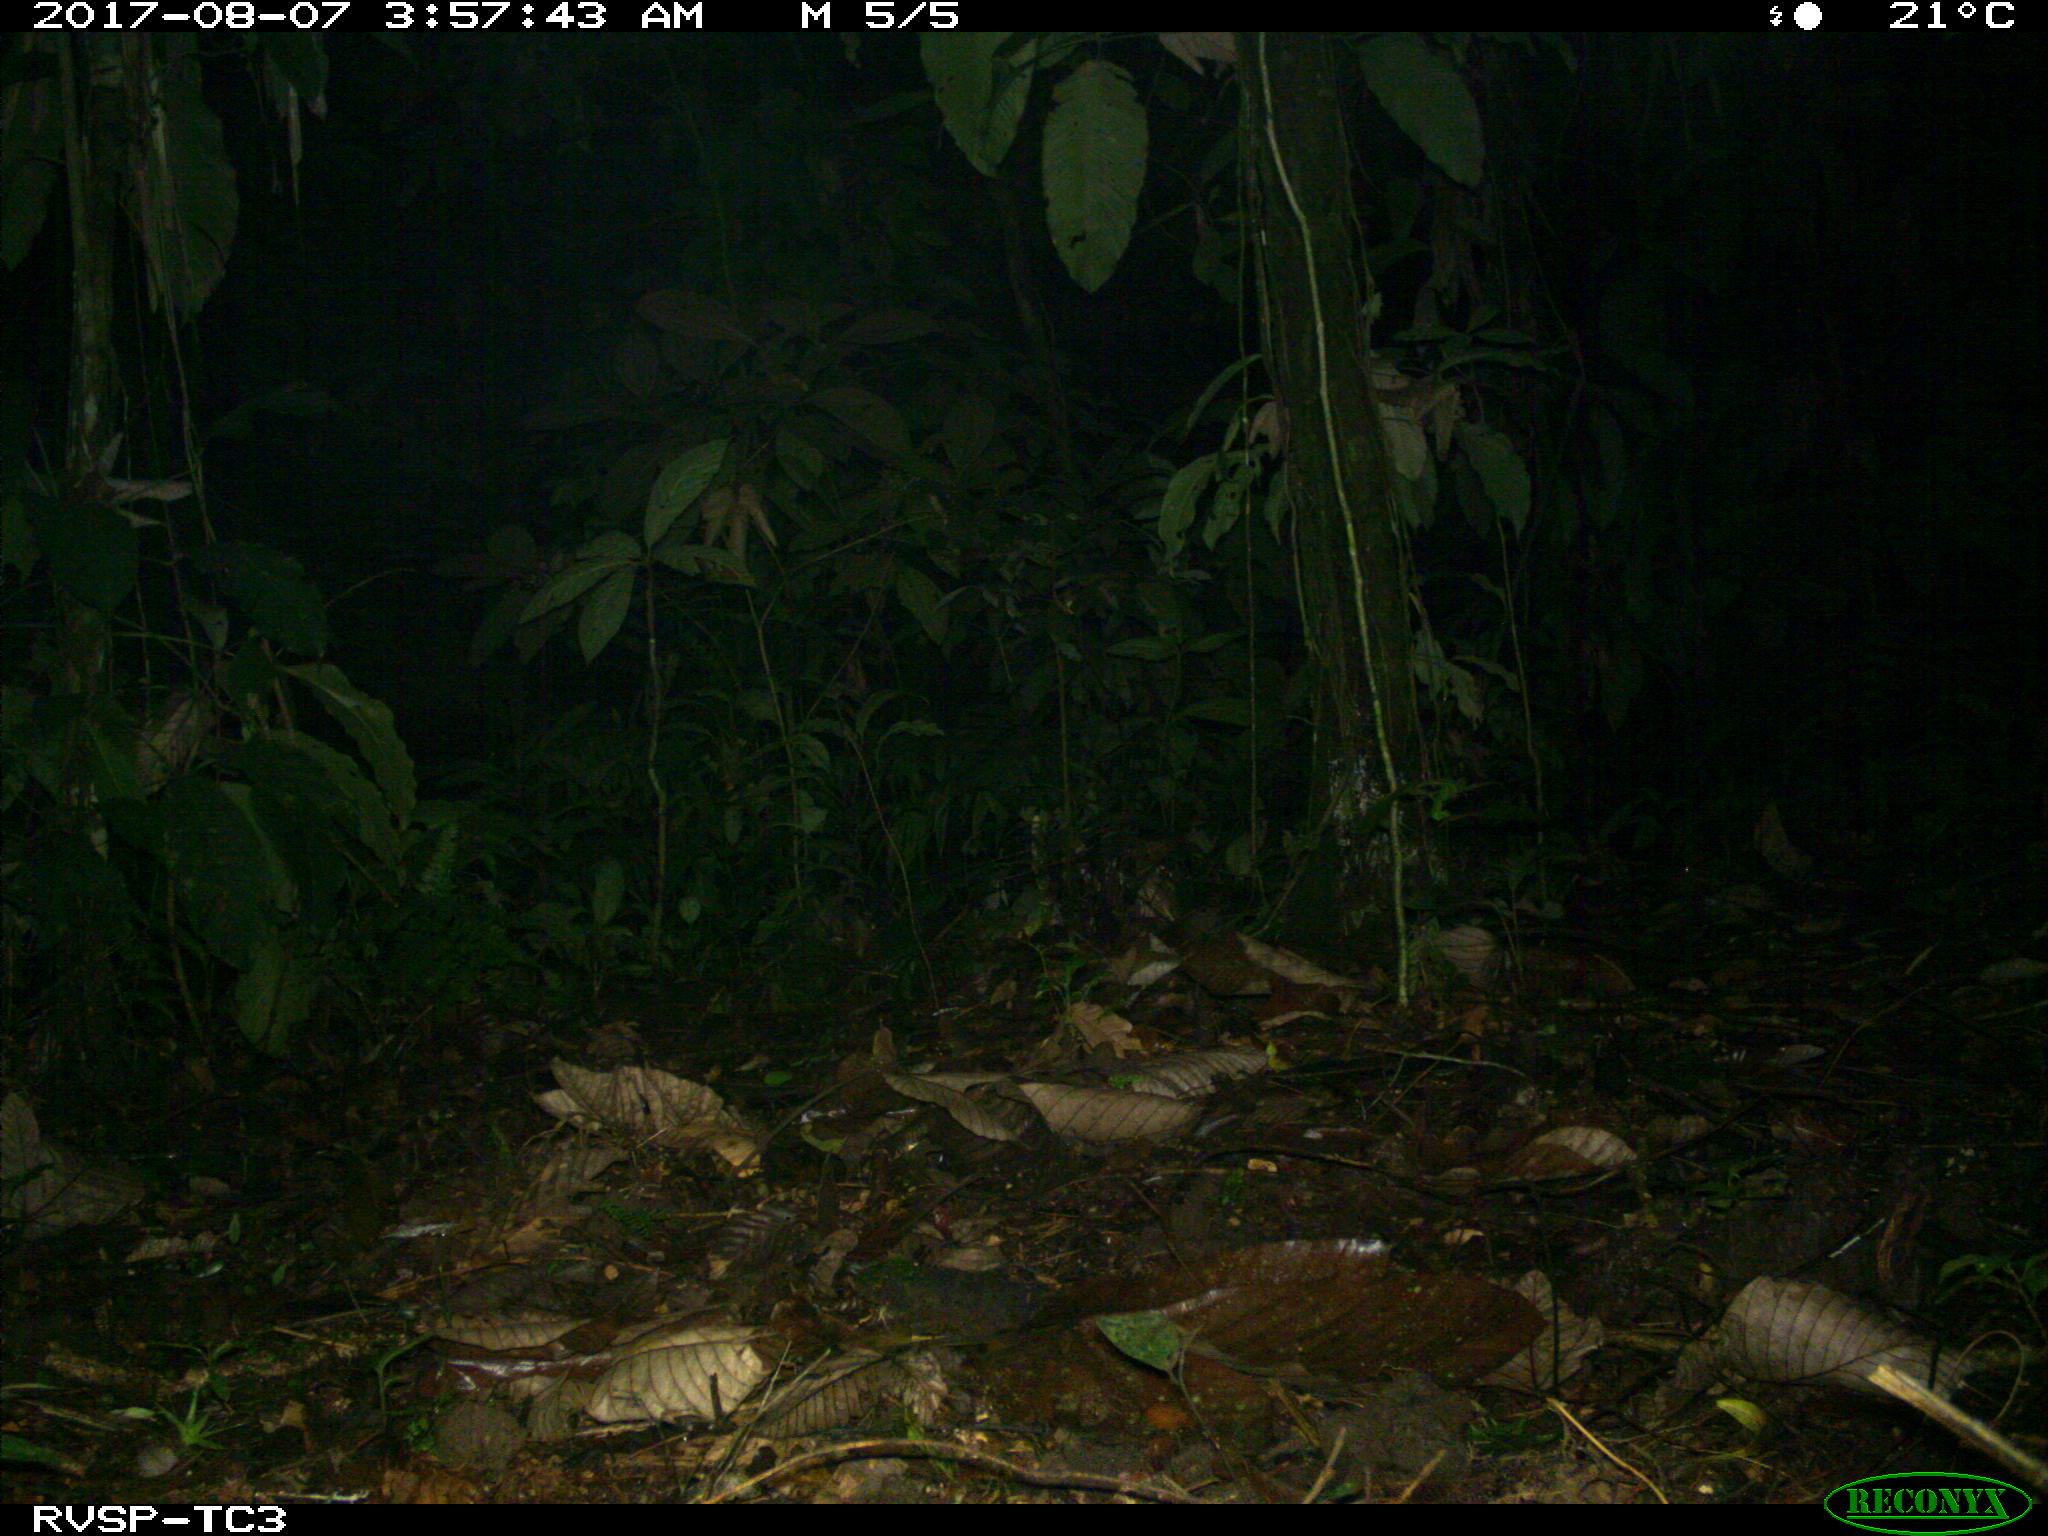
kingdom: Animalia
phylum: Chordata
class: Mammalia
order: Artiodactyla
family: Cervidae
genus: Mazama
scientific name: Mazama americana
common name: Red brocket
